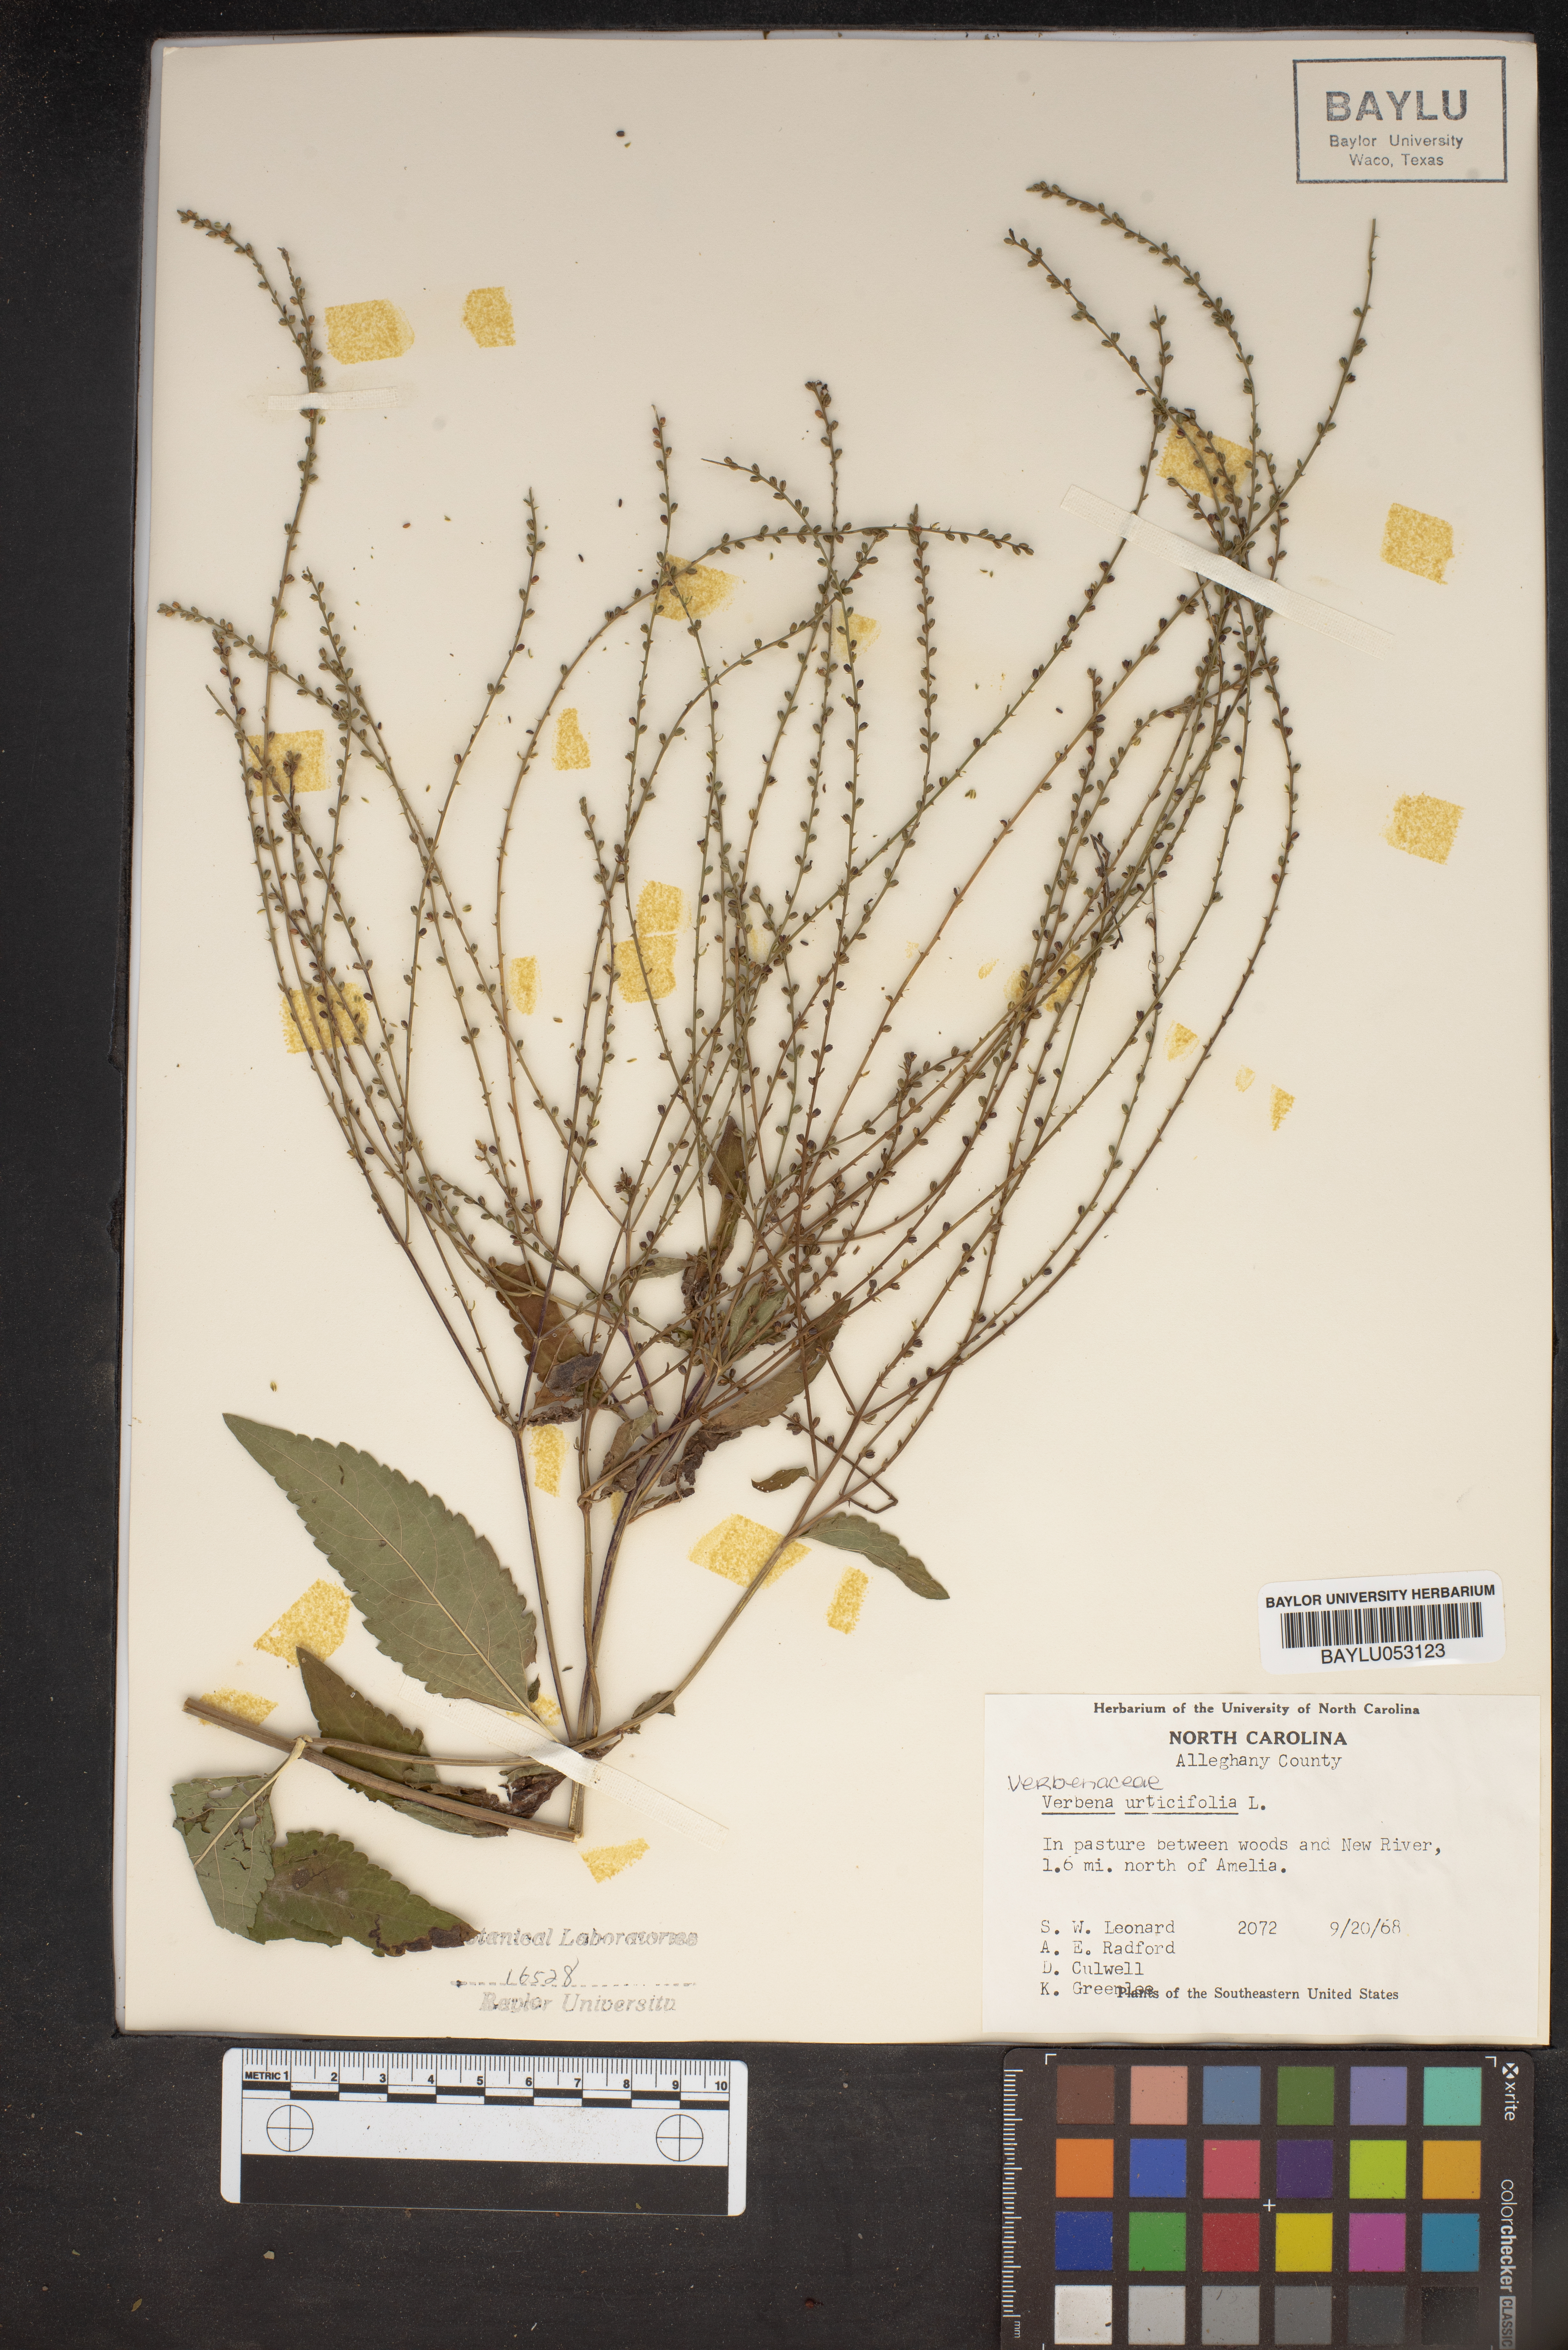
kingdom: Plantae
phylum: Tracheophyta
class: Magnoliopsida
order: Lamiales
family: Verbenaceae
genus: Verbena
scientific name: Verbena urticifolia
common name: Nettle-leaved vervain
